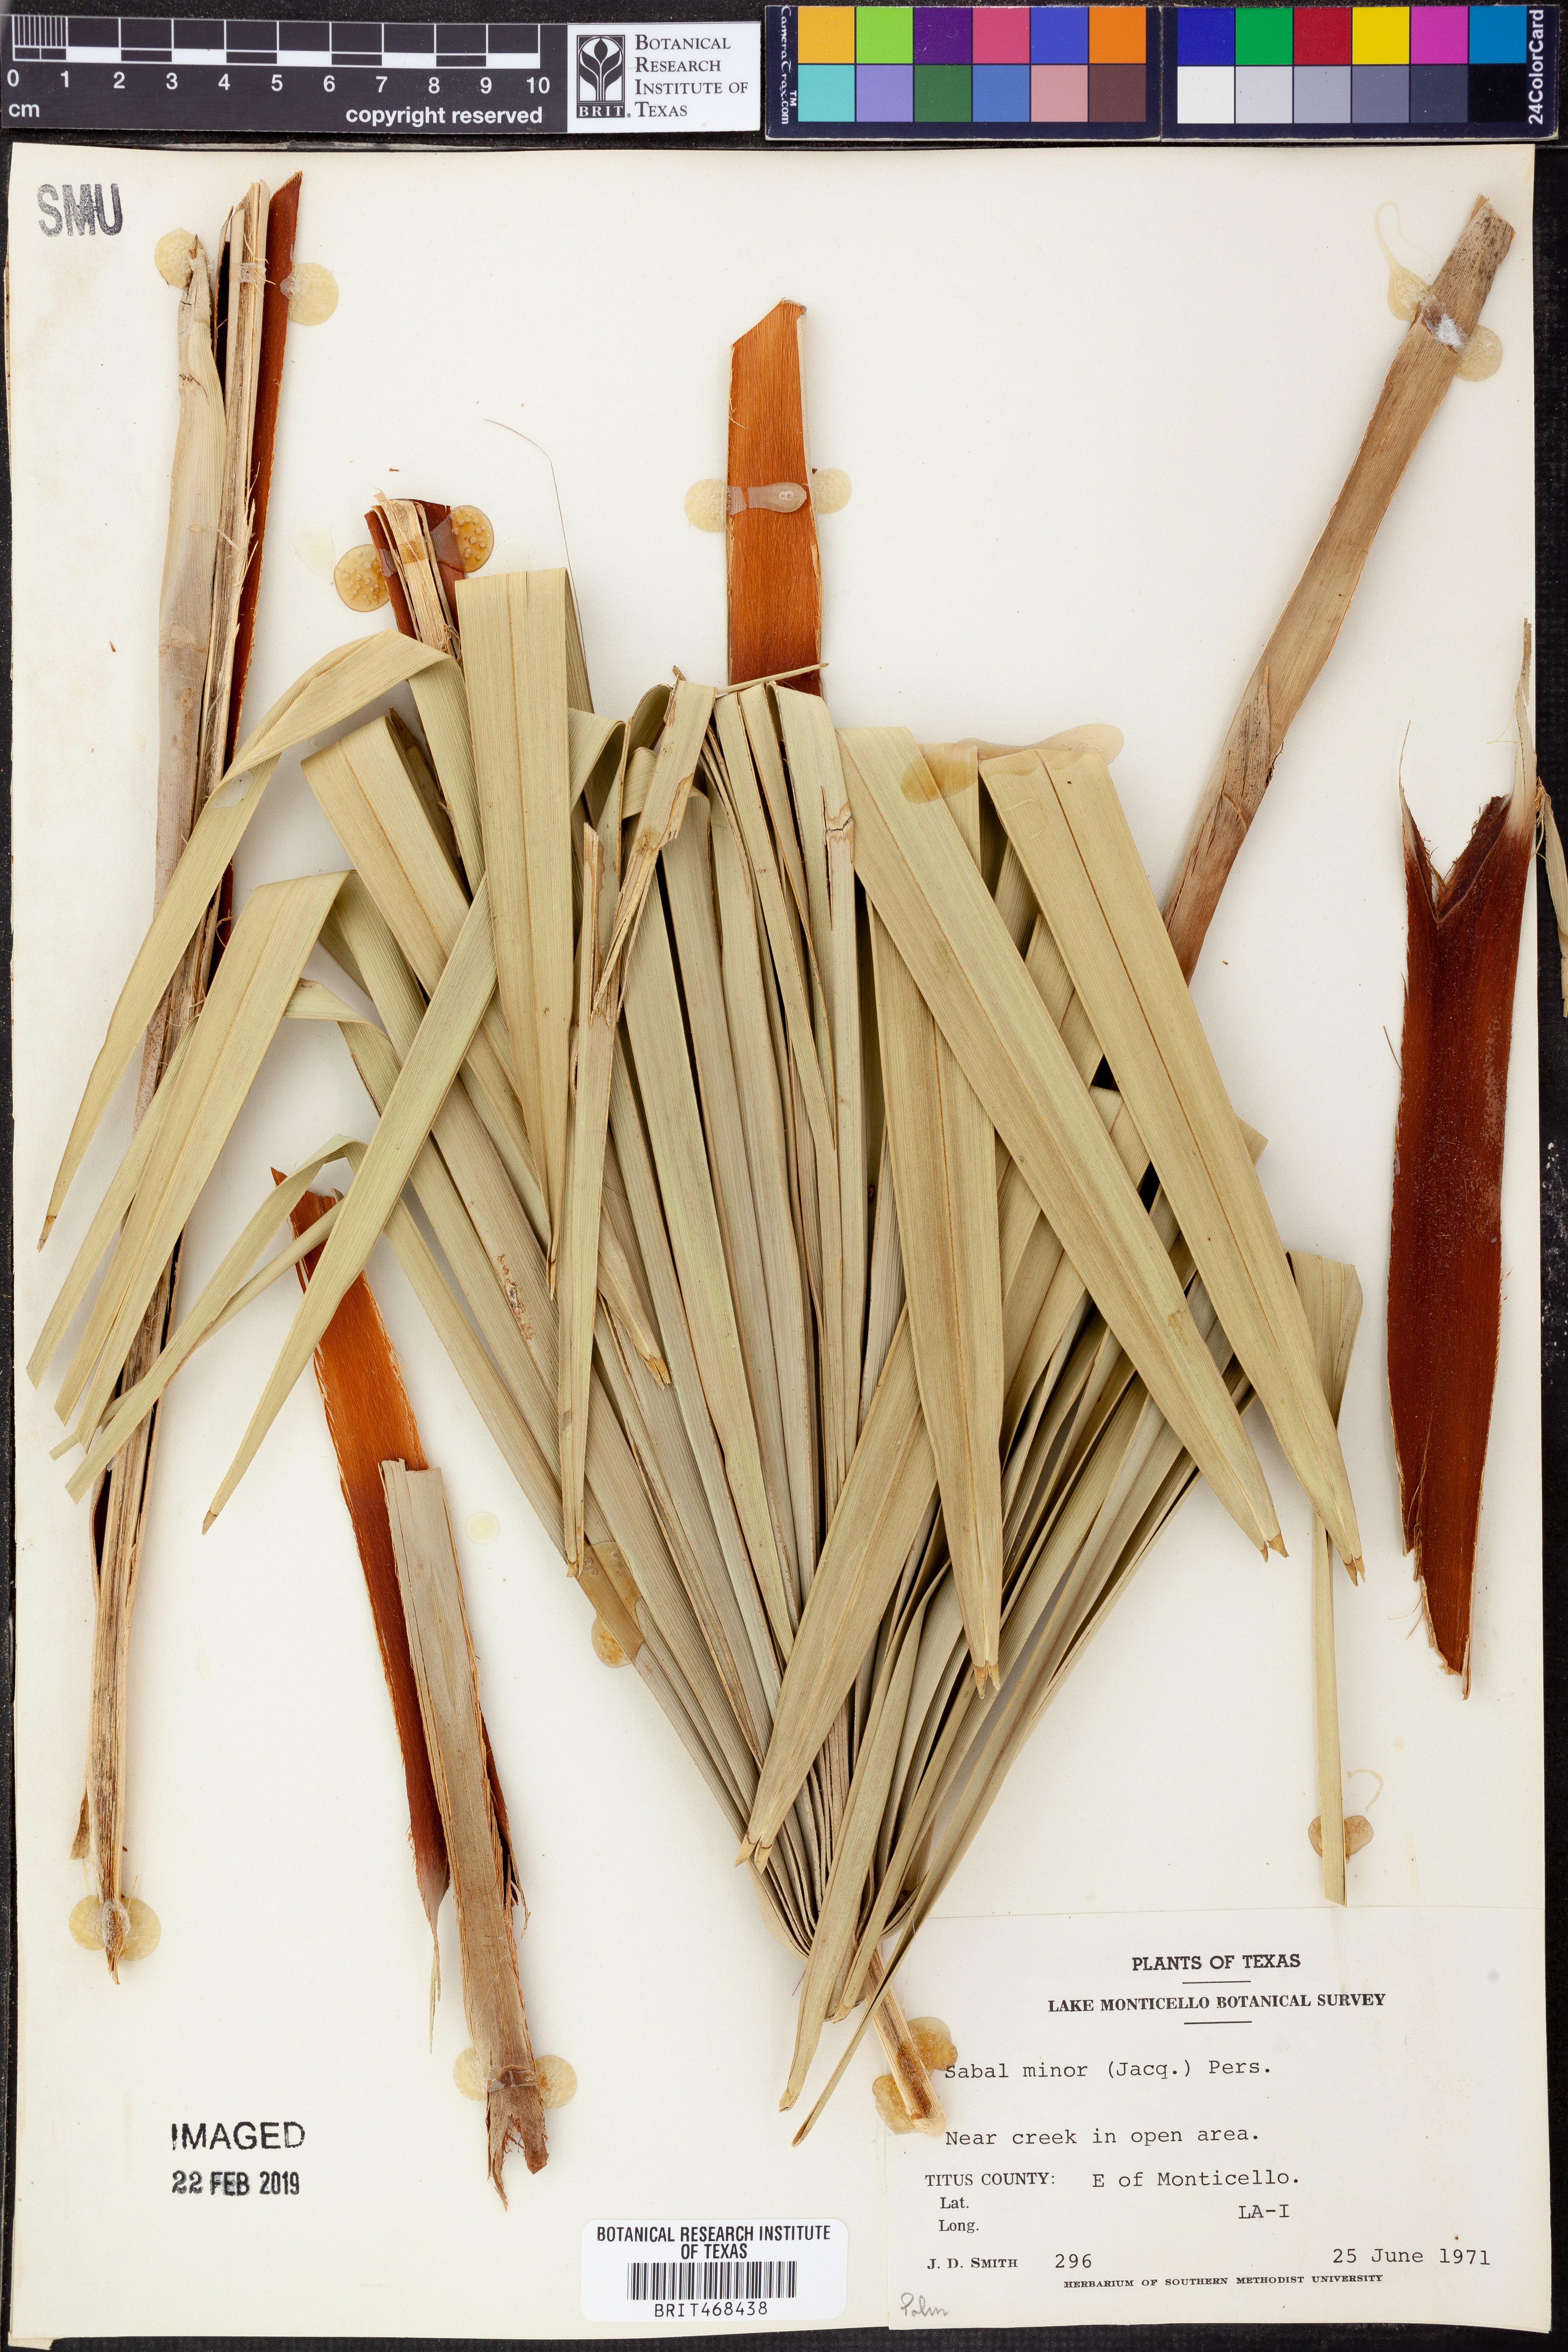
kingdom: Plantae
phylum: Tracheophyta
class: Liliopsida
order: Arecales
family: Arecaceae
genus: Sabal
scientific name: Sabal minor
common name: Dwarf palmetto
